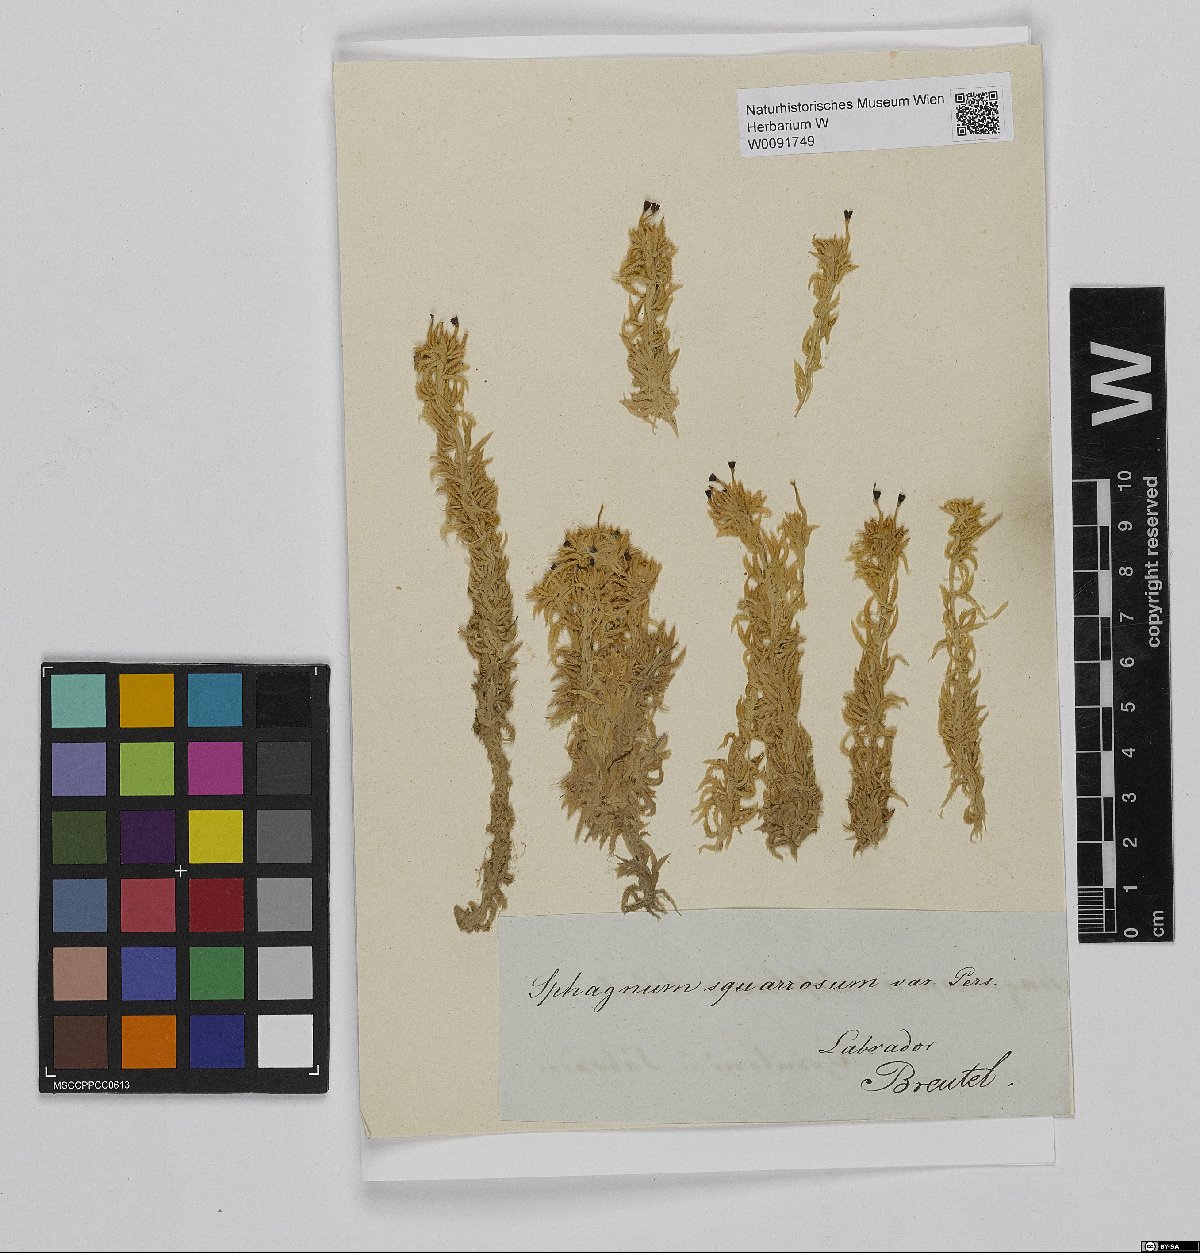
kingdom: Plantae
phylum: Bryophyta
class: Sphagnopsida
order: Sphagnales
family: Sphagnaceae
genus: Sphagnum
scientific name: Sphagnum squarrosum
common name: Shaggy peat moss
